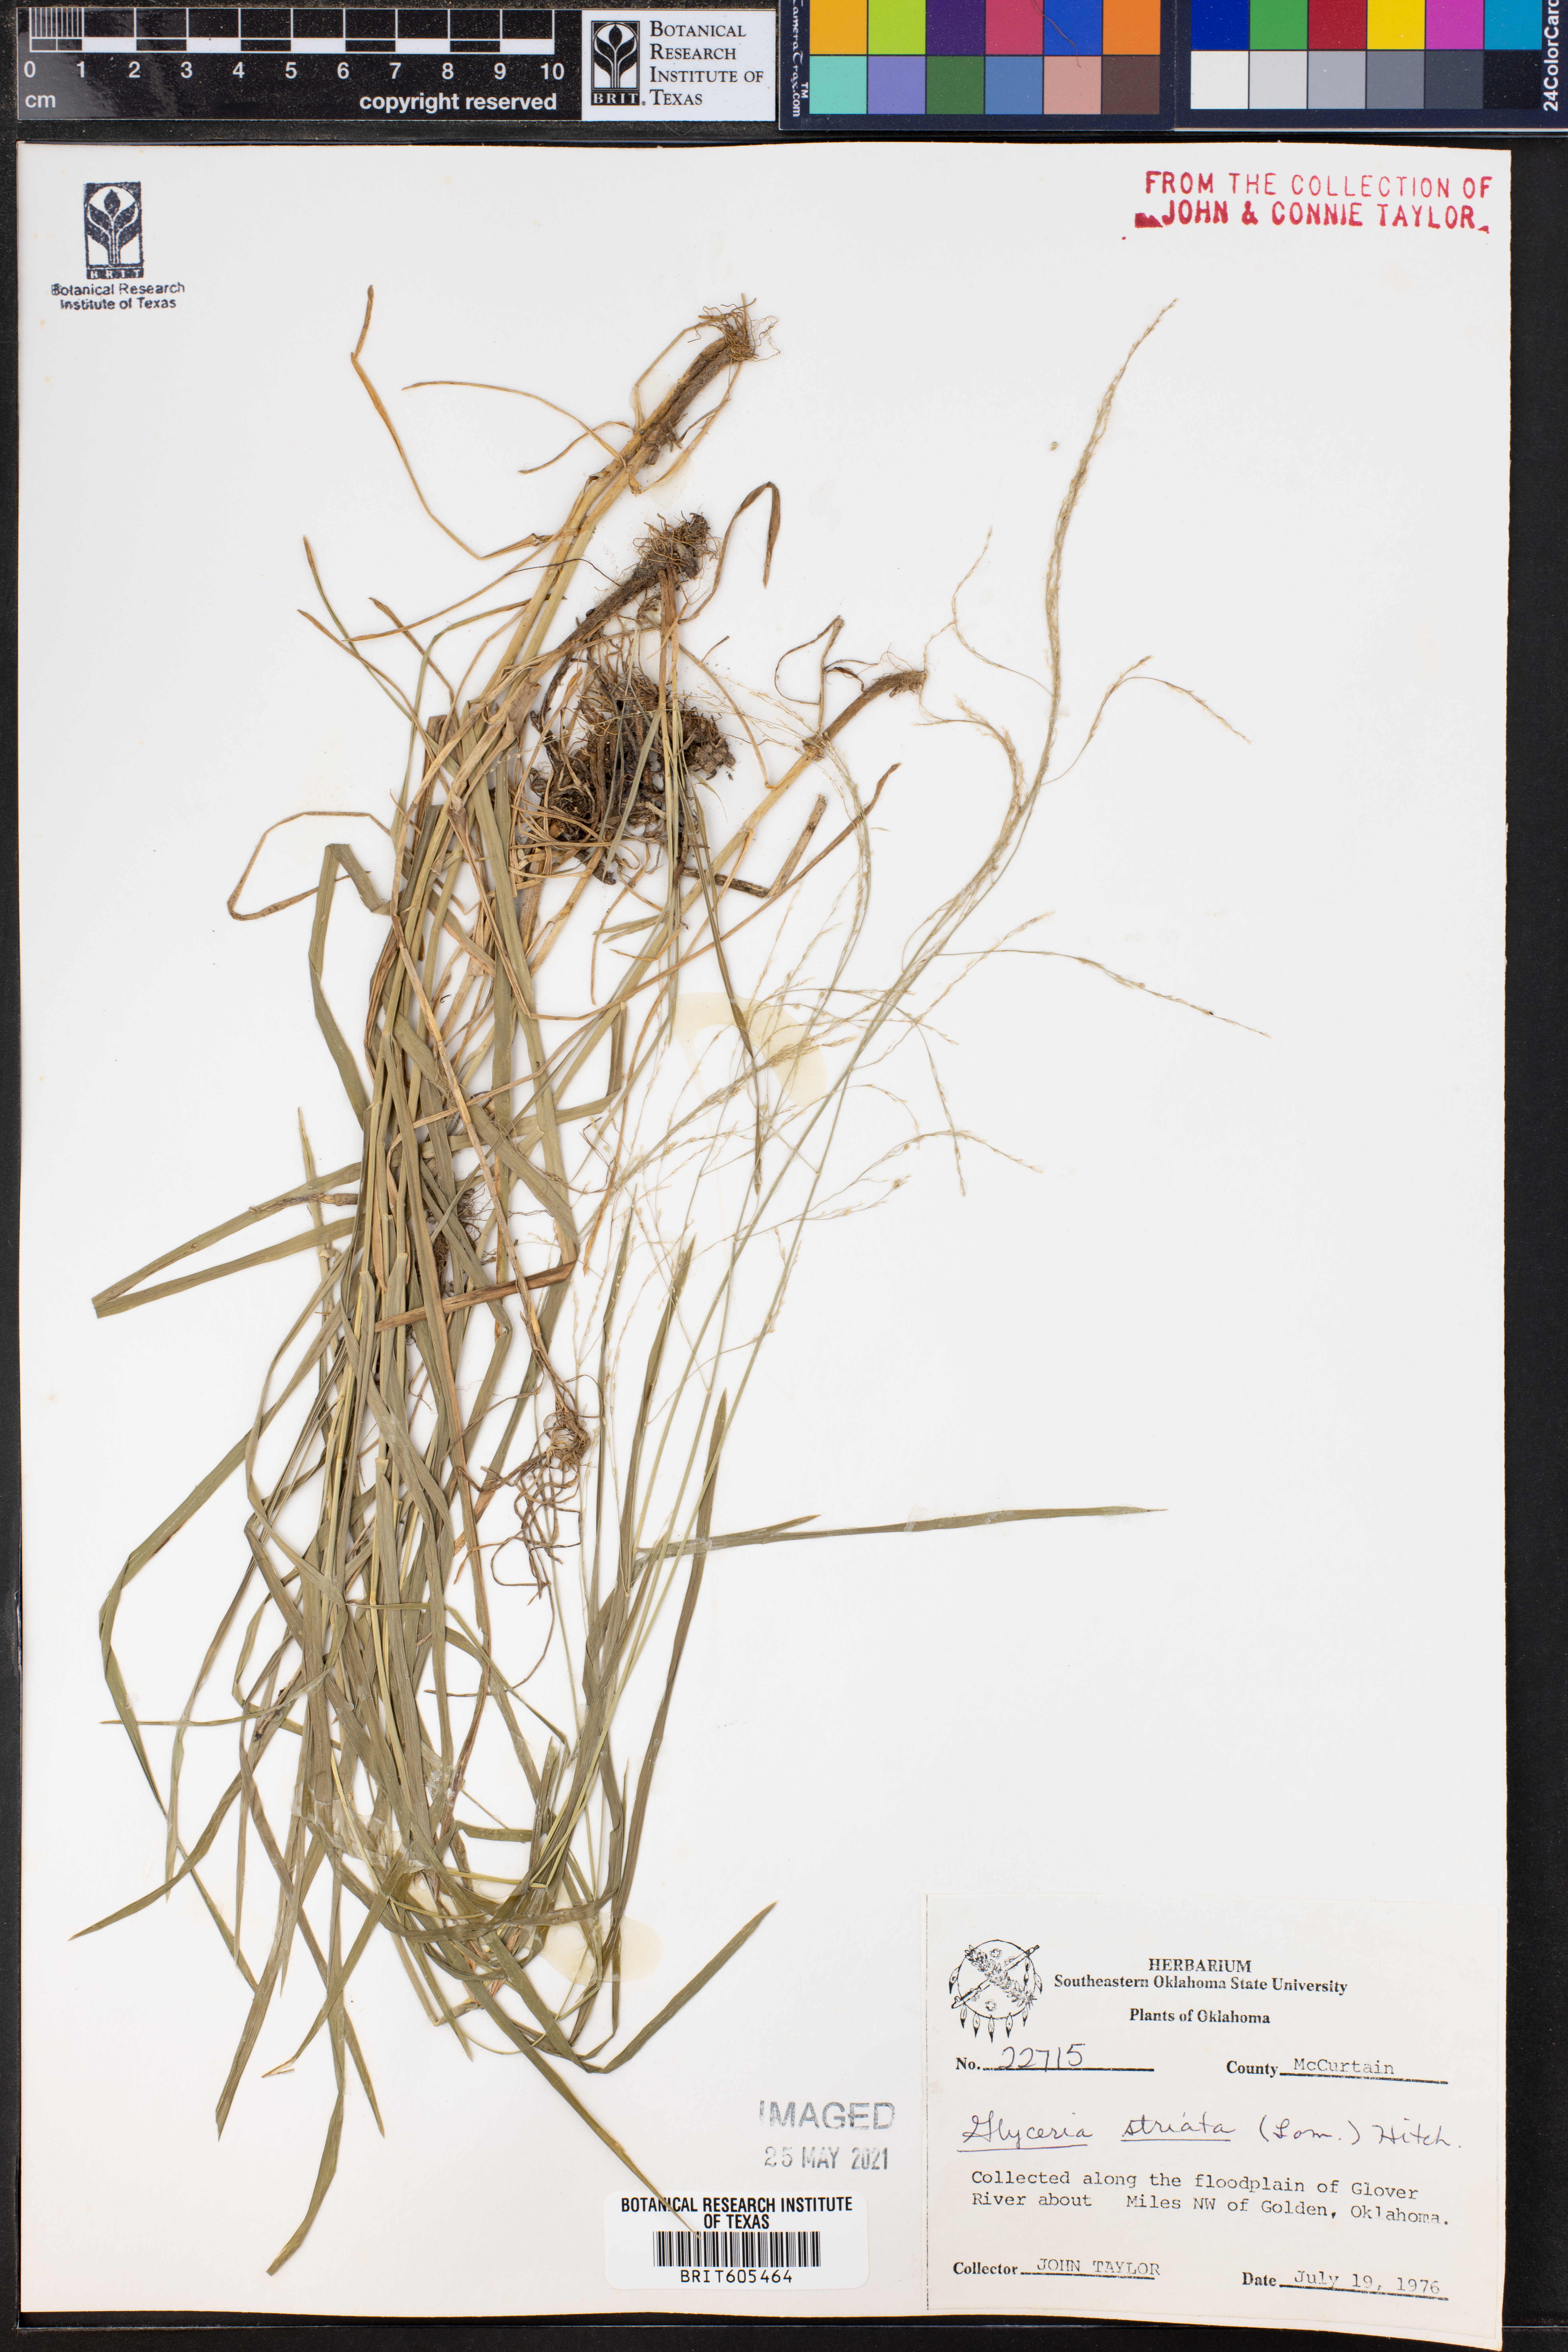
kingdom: Plantae
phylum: Tracheophyta
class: Liliopsida
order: Poales
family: Poaceae
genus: Glyceria
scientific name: Glyceria striata
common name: Fowl manna grass
